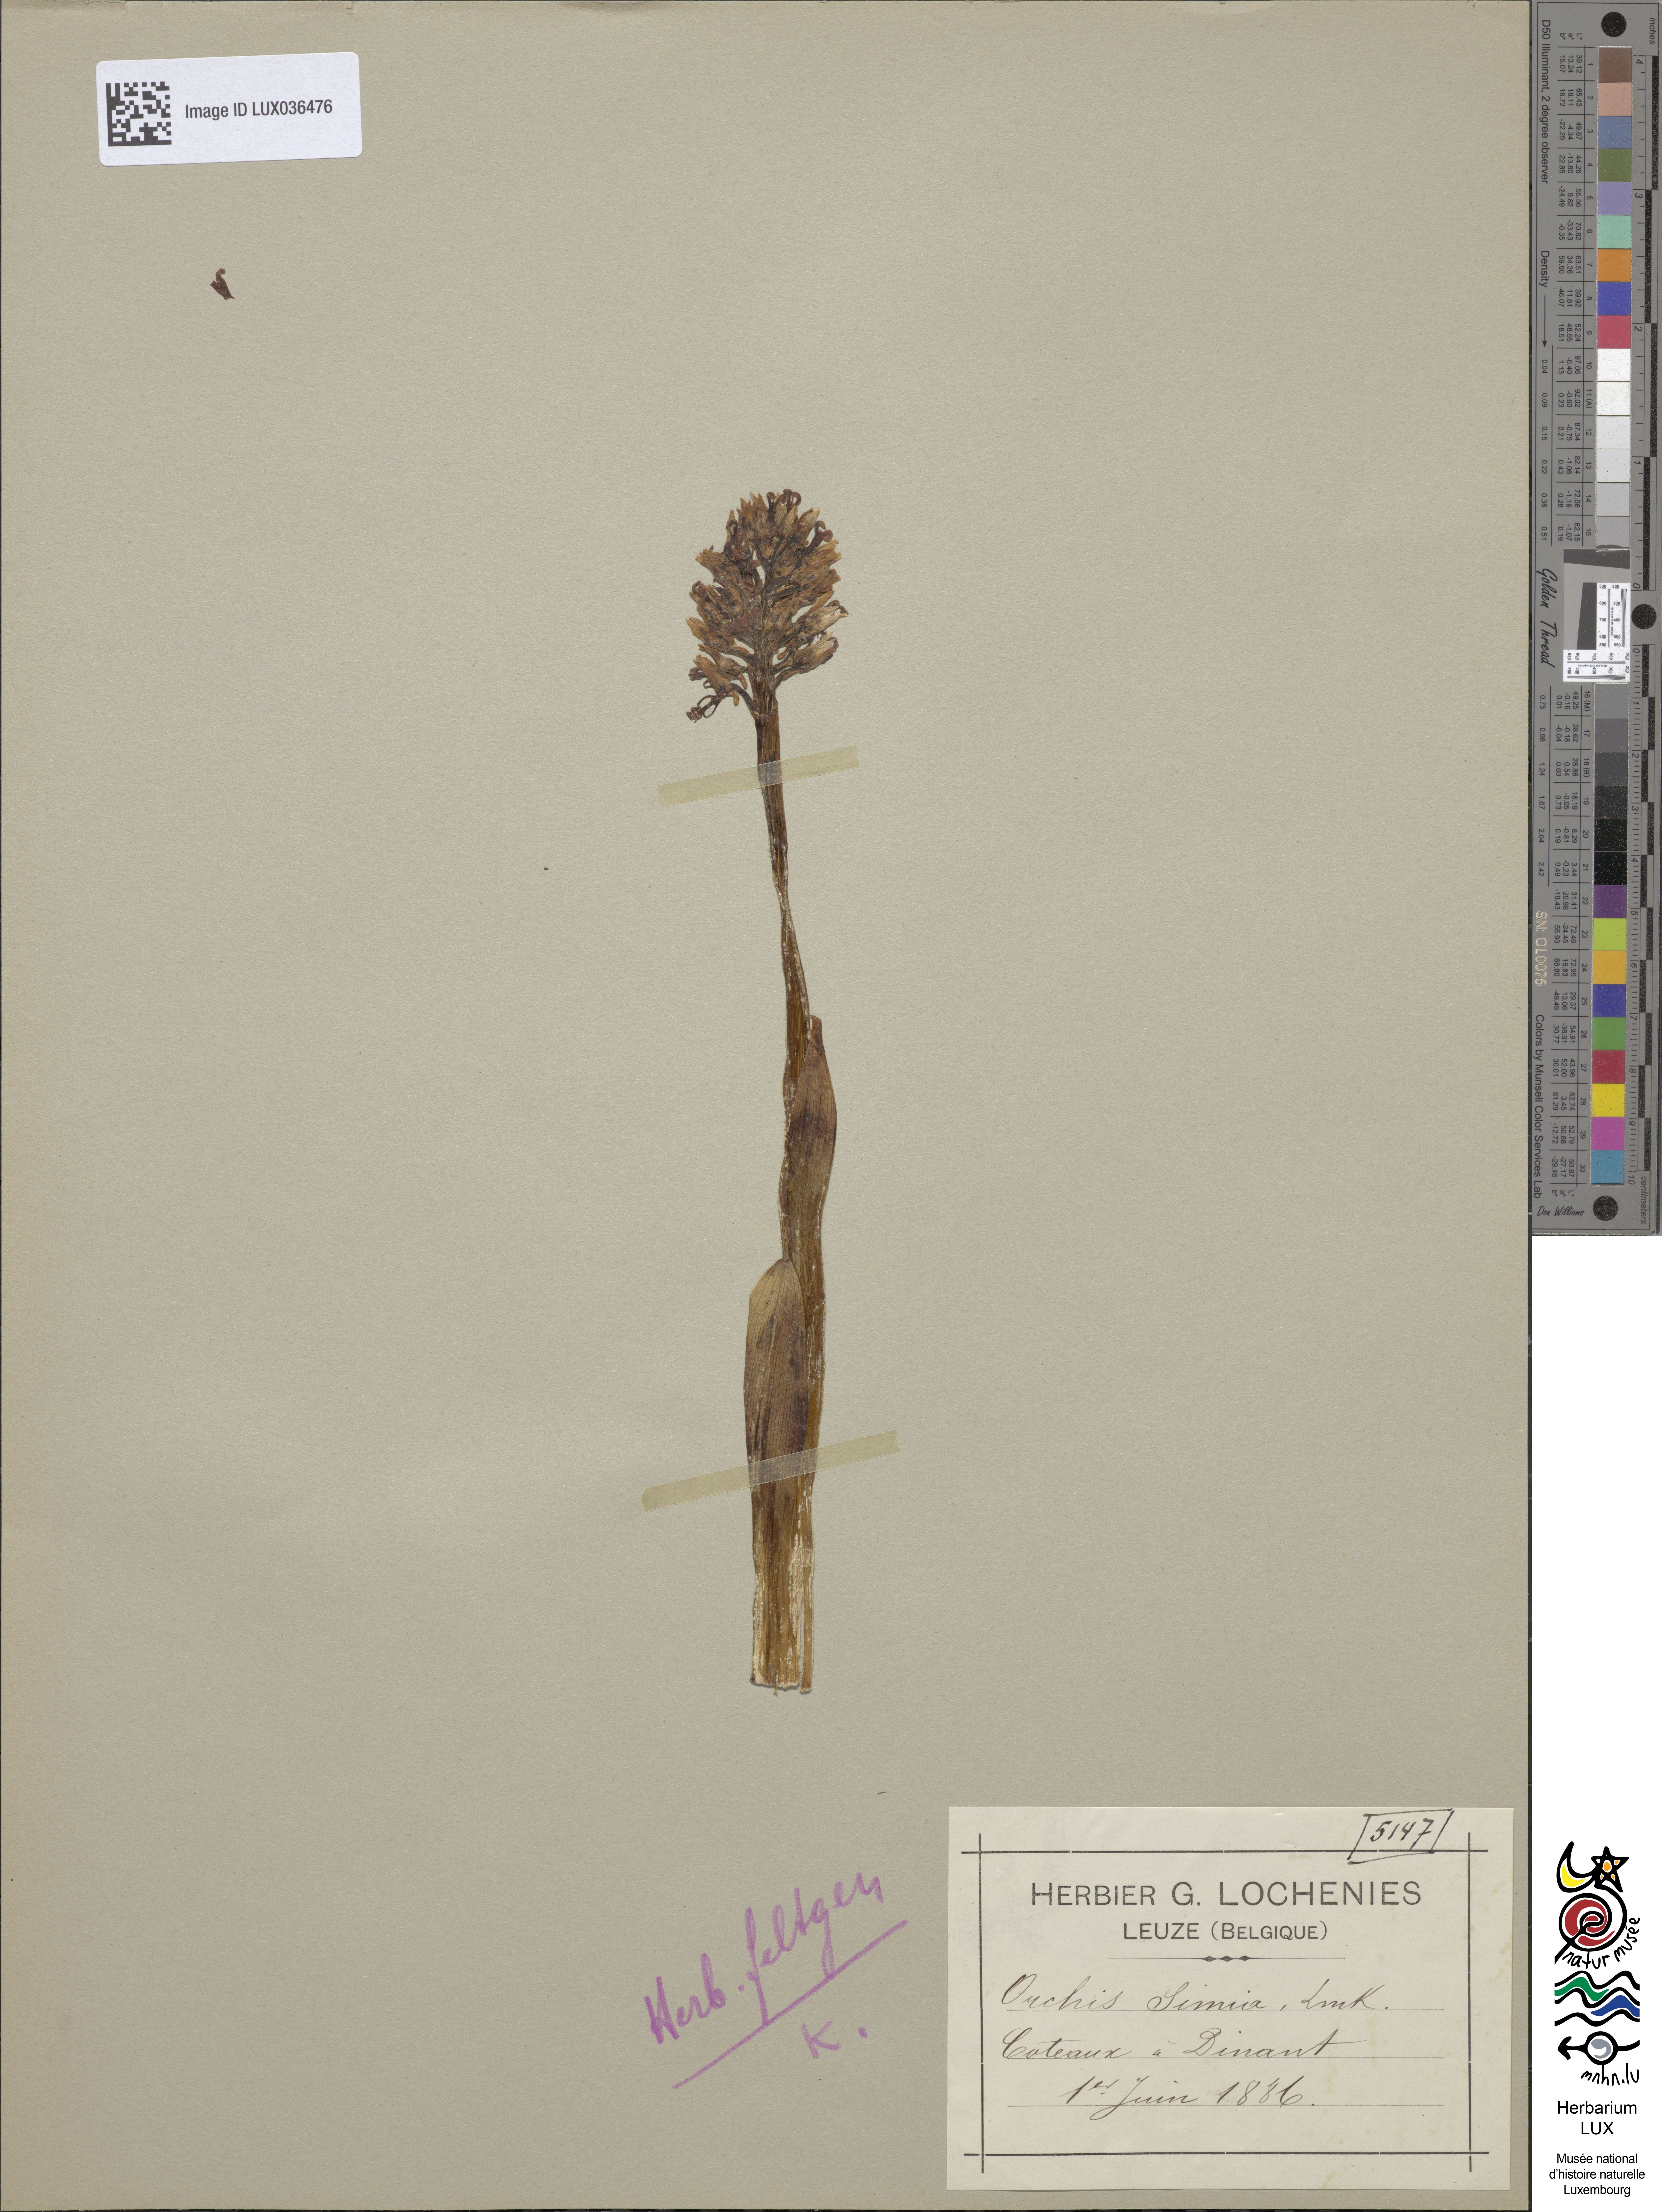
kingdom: Plantae
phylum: Tracheophyta
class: Liliopsida
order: Asparagales
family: Orchidaceae
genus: Orchis
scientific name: Orchis simia
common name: Monkey orchid
